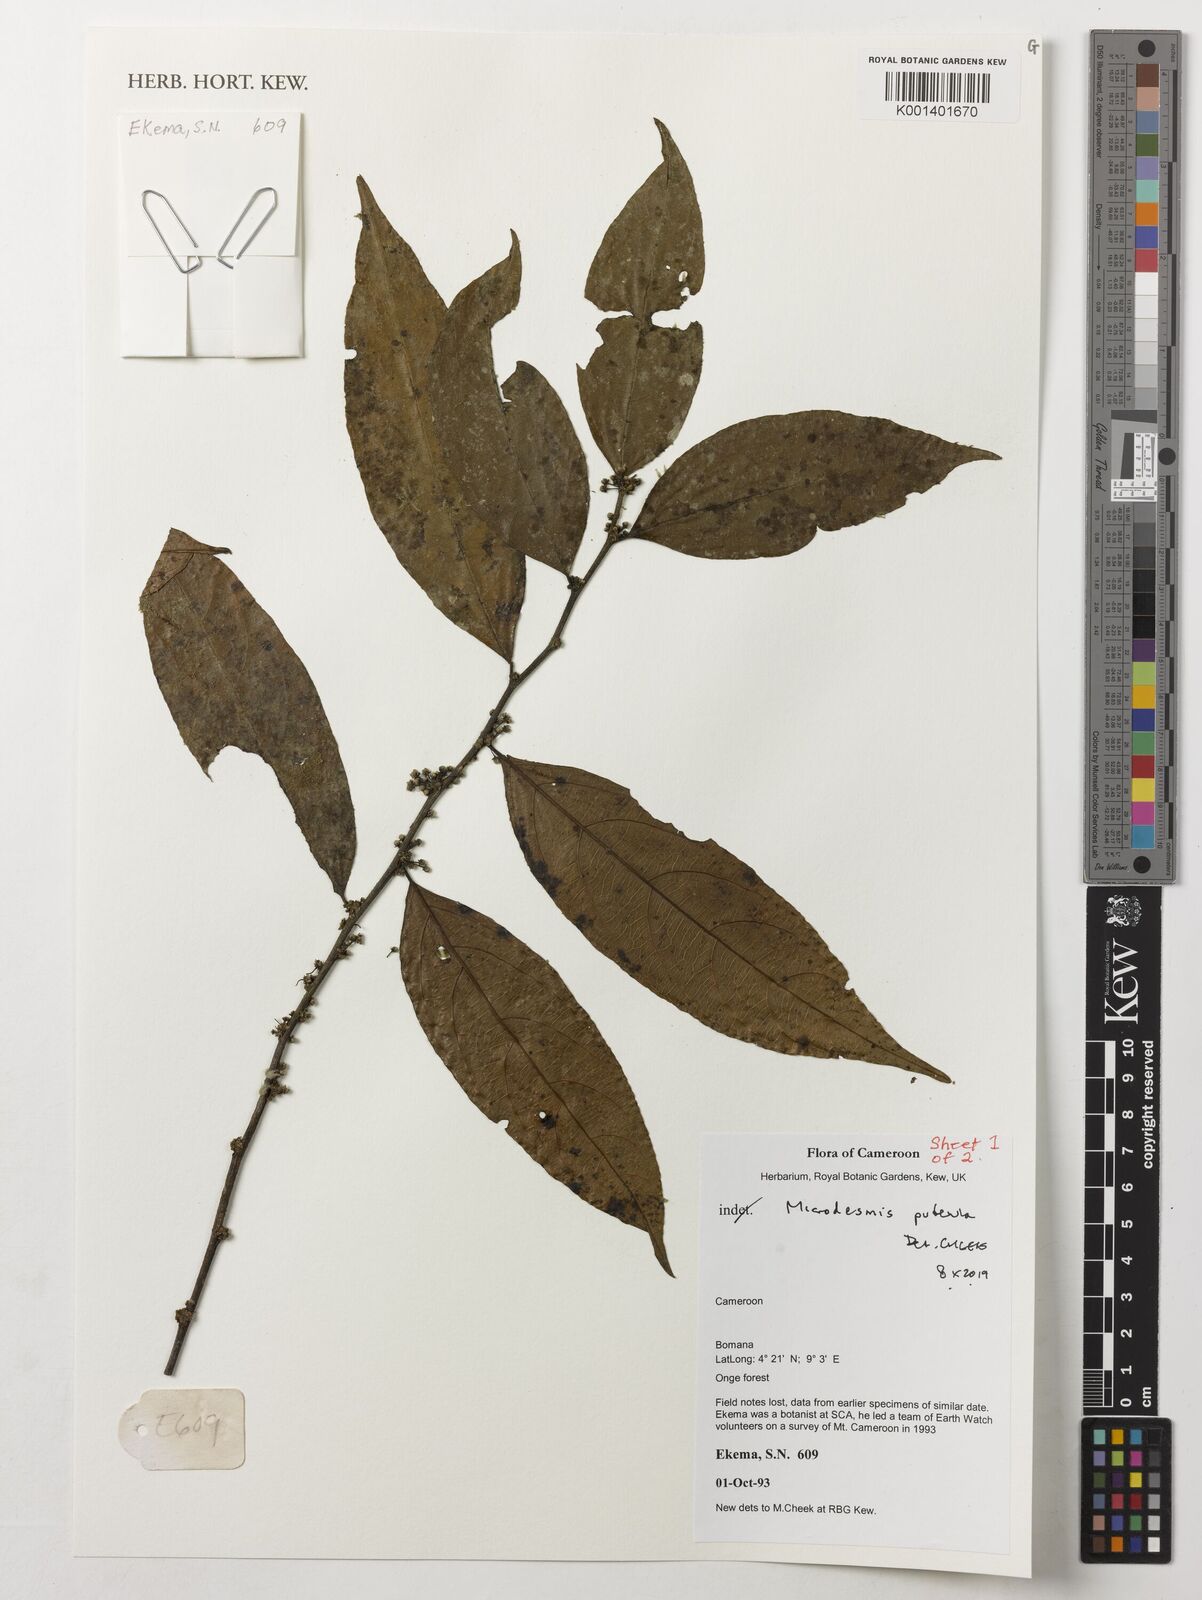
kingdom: Plantae
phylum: Tracheophyta
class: Magnoliopsida
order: Malpighiales
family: Pandaceae
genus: Microdesmis
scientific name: Microdesmis puberula
